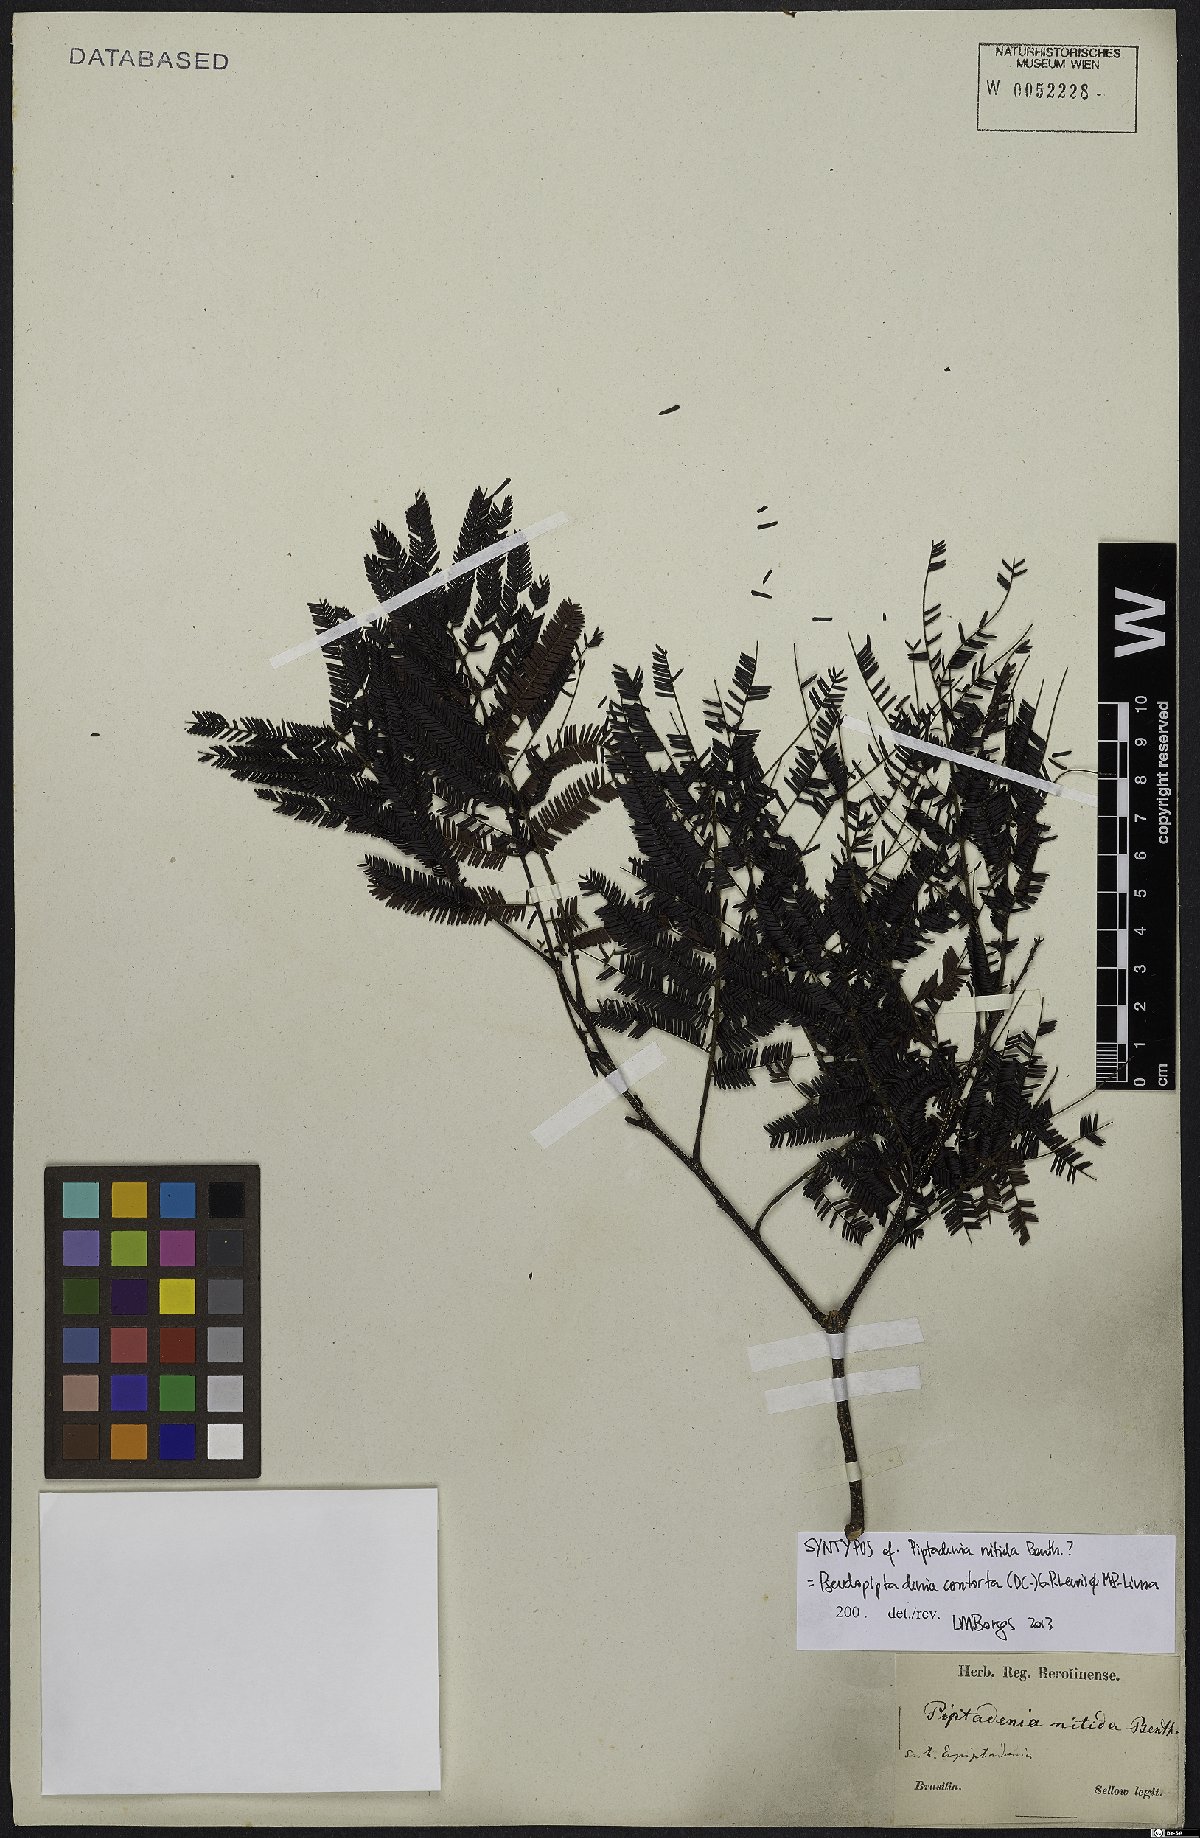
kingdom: Plantae
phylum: Tracheophyta
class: Magnoliopsida
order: Fabales
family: Fabaceae
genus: Pseudopiptadenia
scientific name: Pseudopiptadenia contorta
